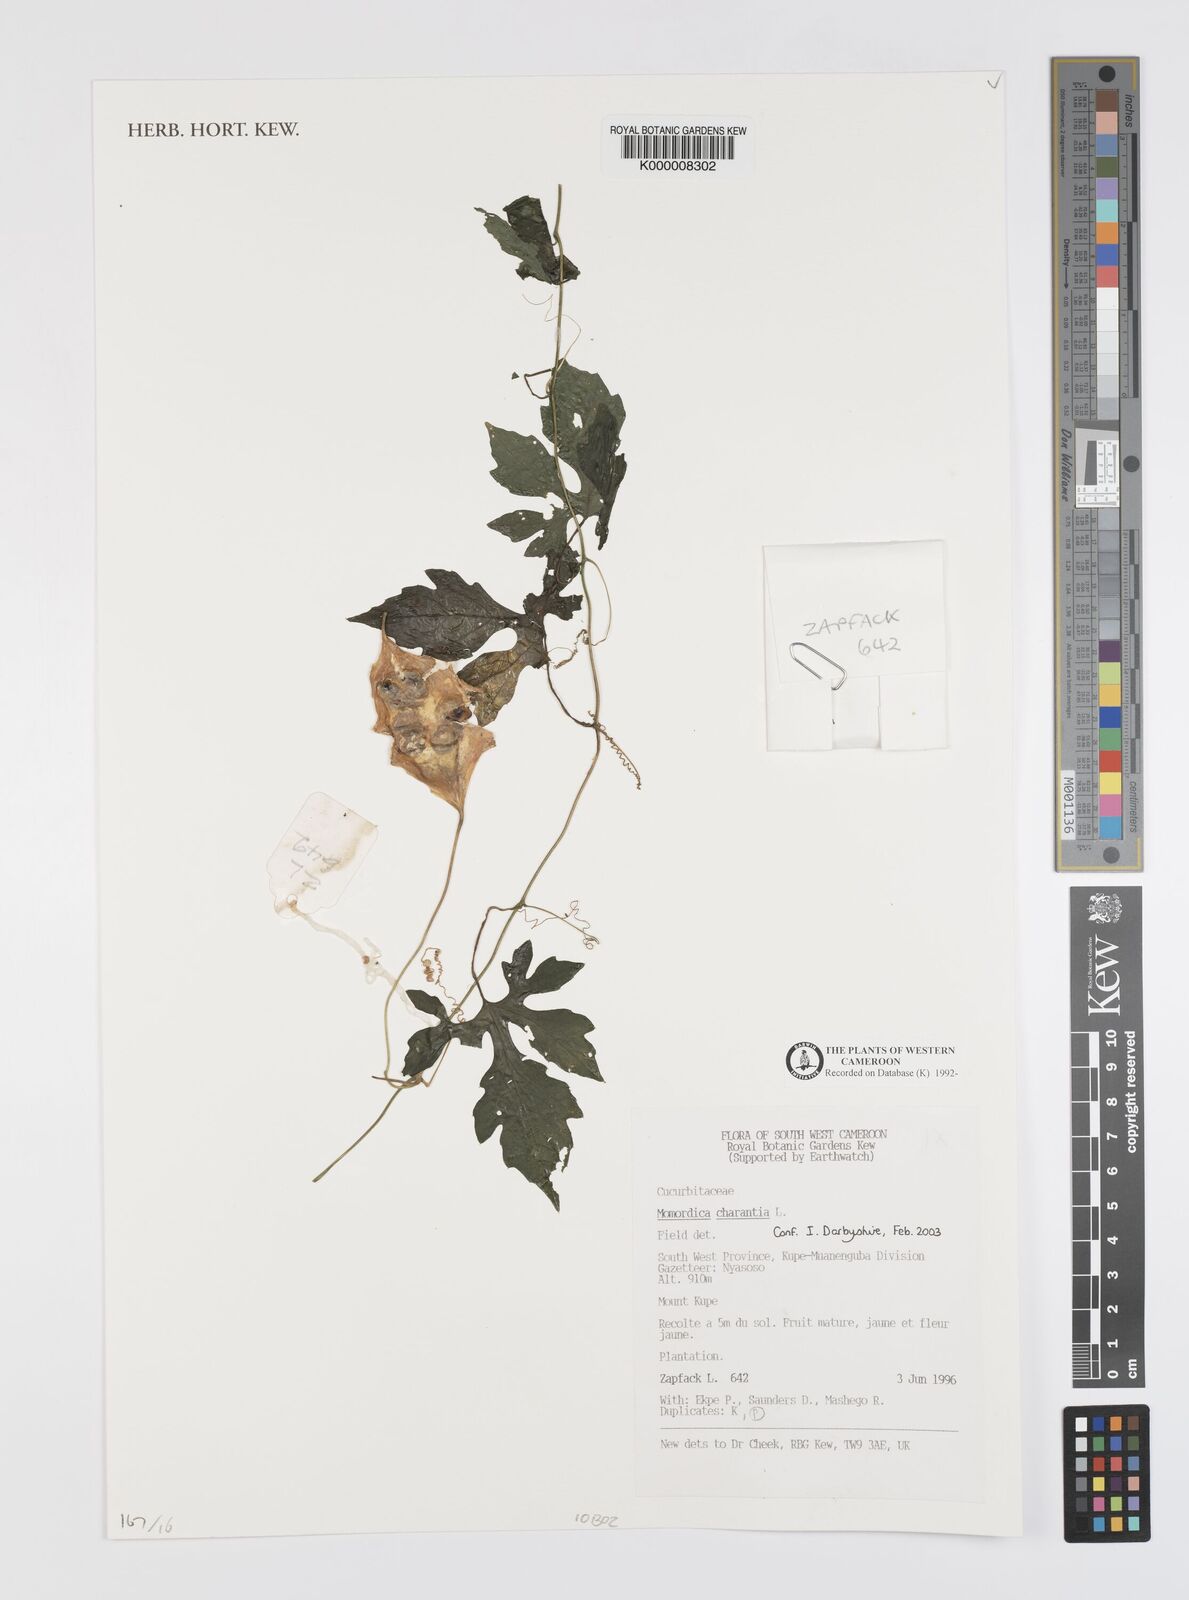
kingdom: Plantae
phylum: Tracheophyta
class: Magnoliopsida
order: Cucurbitales
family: Cucurbitaceae
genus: Momordica
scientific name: Momordica charantia
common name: Balsampear
